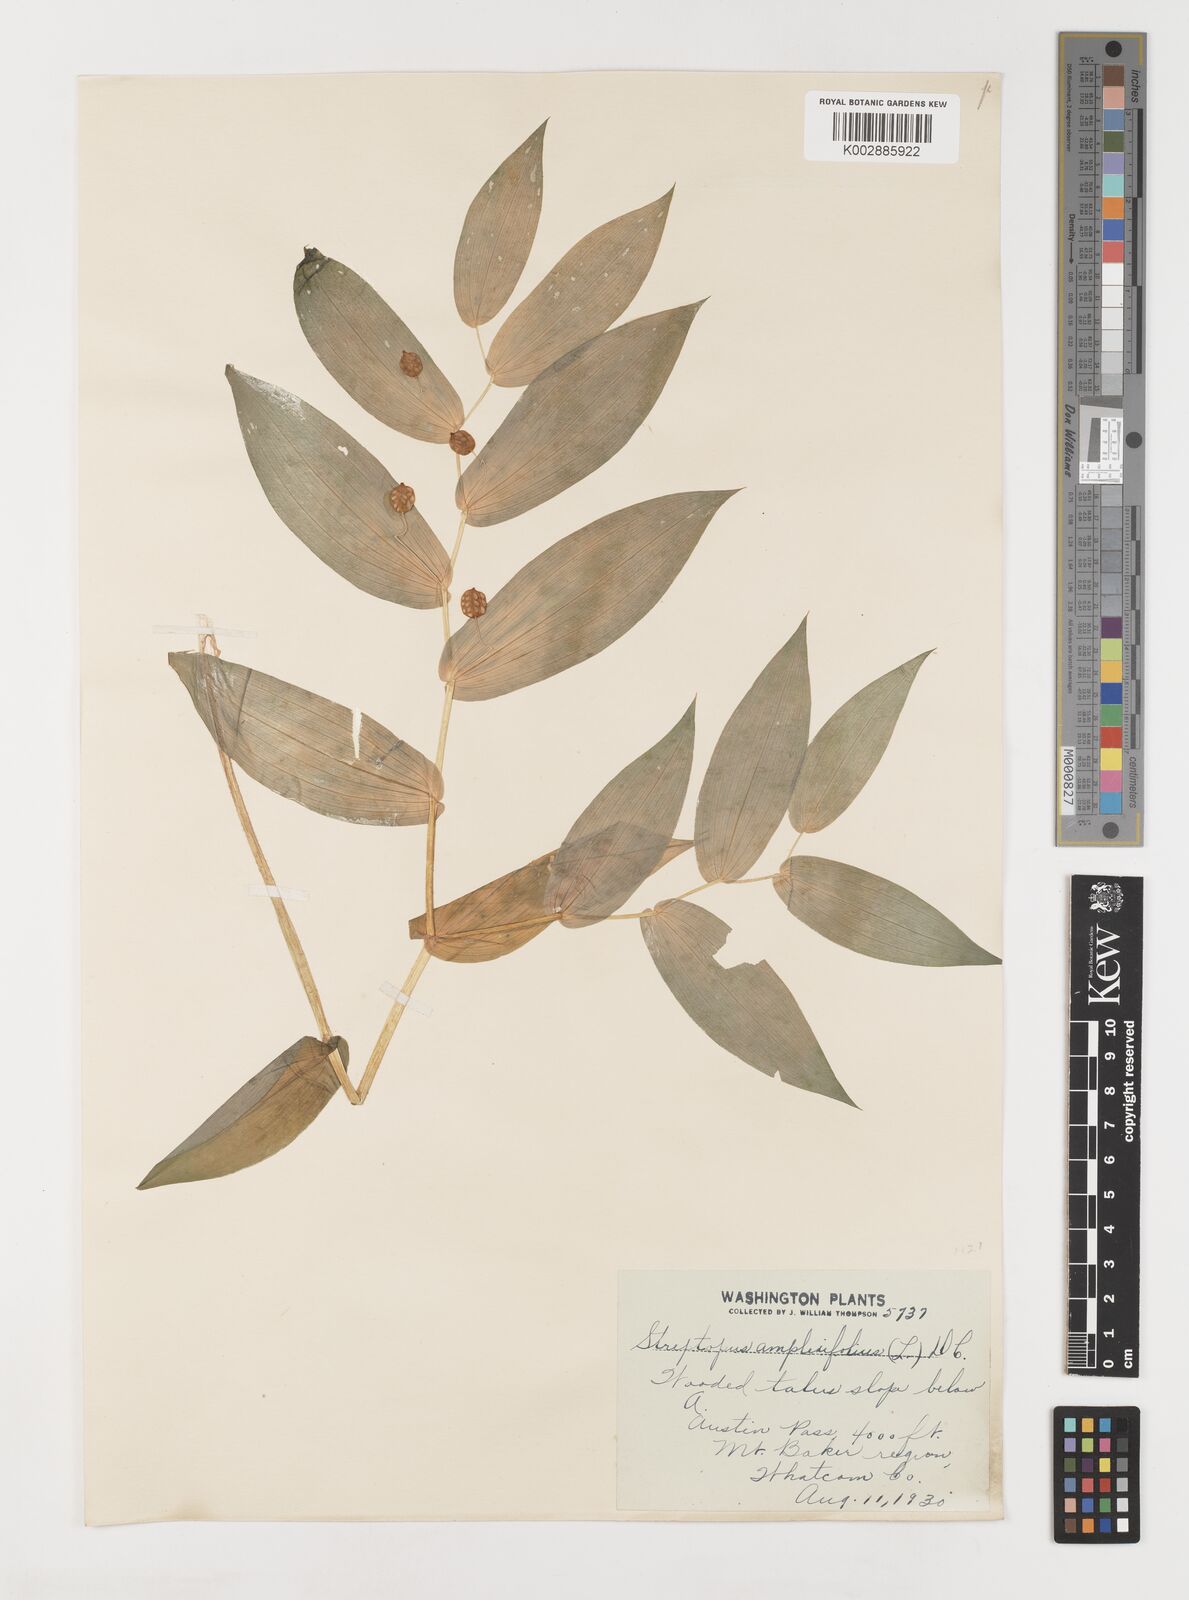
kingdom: Plantae
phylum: Tracheophyta
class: Liliopsida
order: Liliales
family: Liliaceae
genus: Streptopus
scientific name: Streptopus
